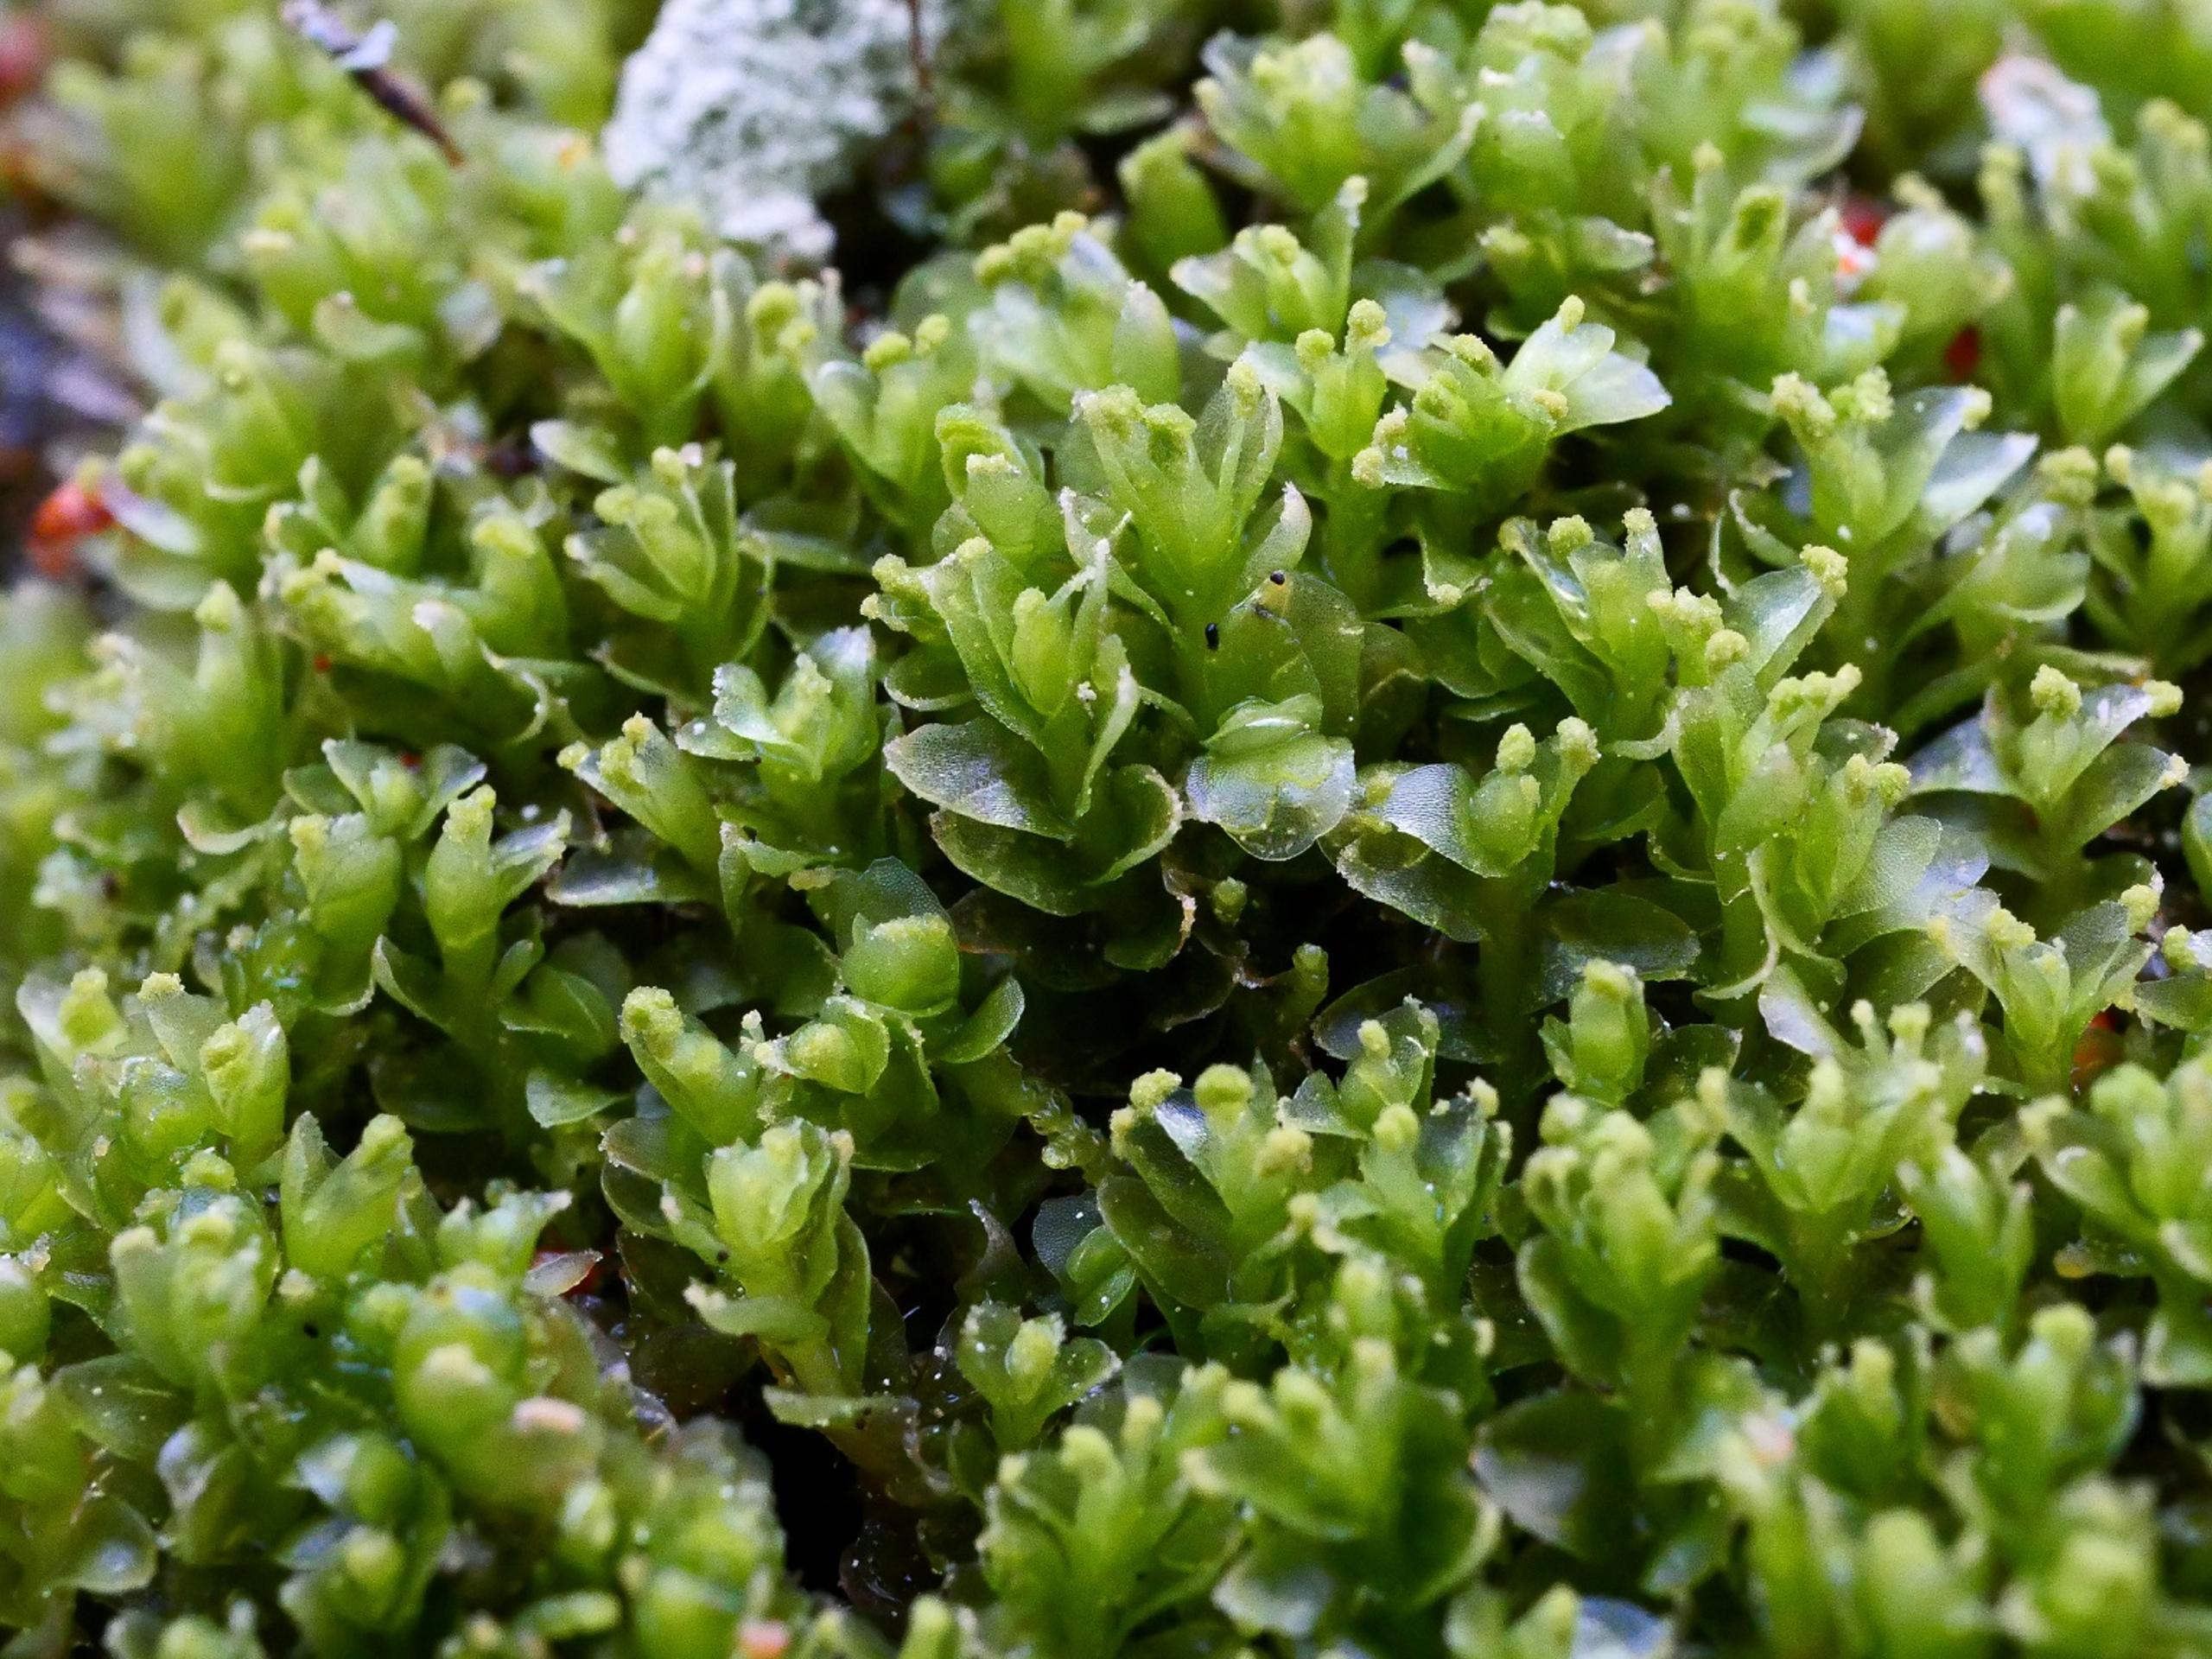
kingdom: Plantae
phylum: Marchantiophyta
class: Jungermanniopsida
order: Jungermanniales
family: Myliaceae
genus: Mylia
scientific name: Mylia anomala
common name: Mose-fladmund
